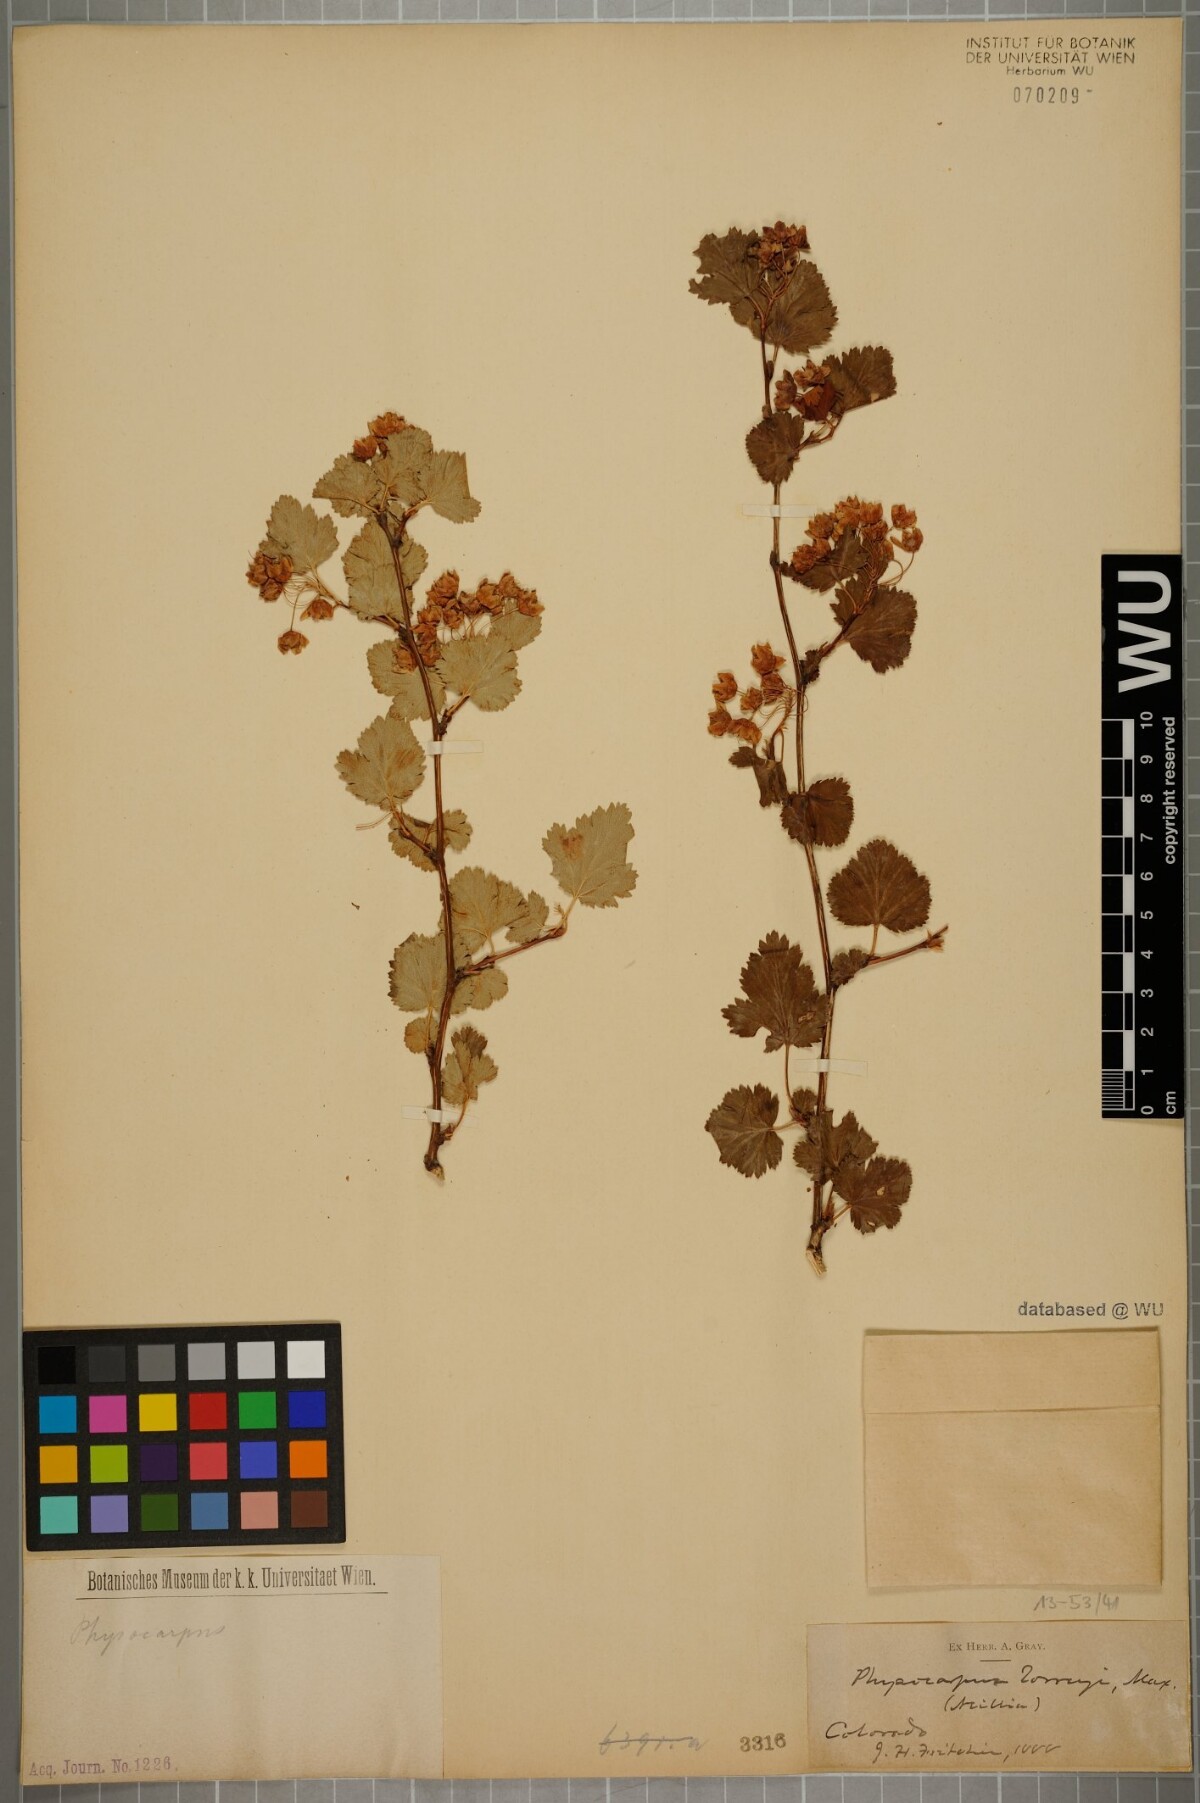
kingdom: Plantae
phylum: Tracheophyta
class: Magnoliopsida
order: Rosales
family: Rosaceae
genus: Physocarpus
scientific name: Physocarpus monogynus
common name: Mountain ninebark
